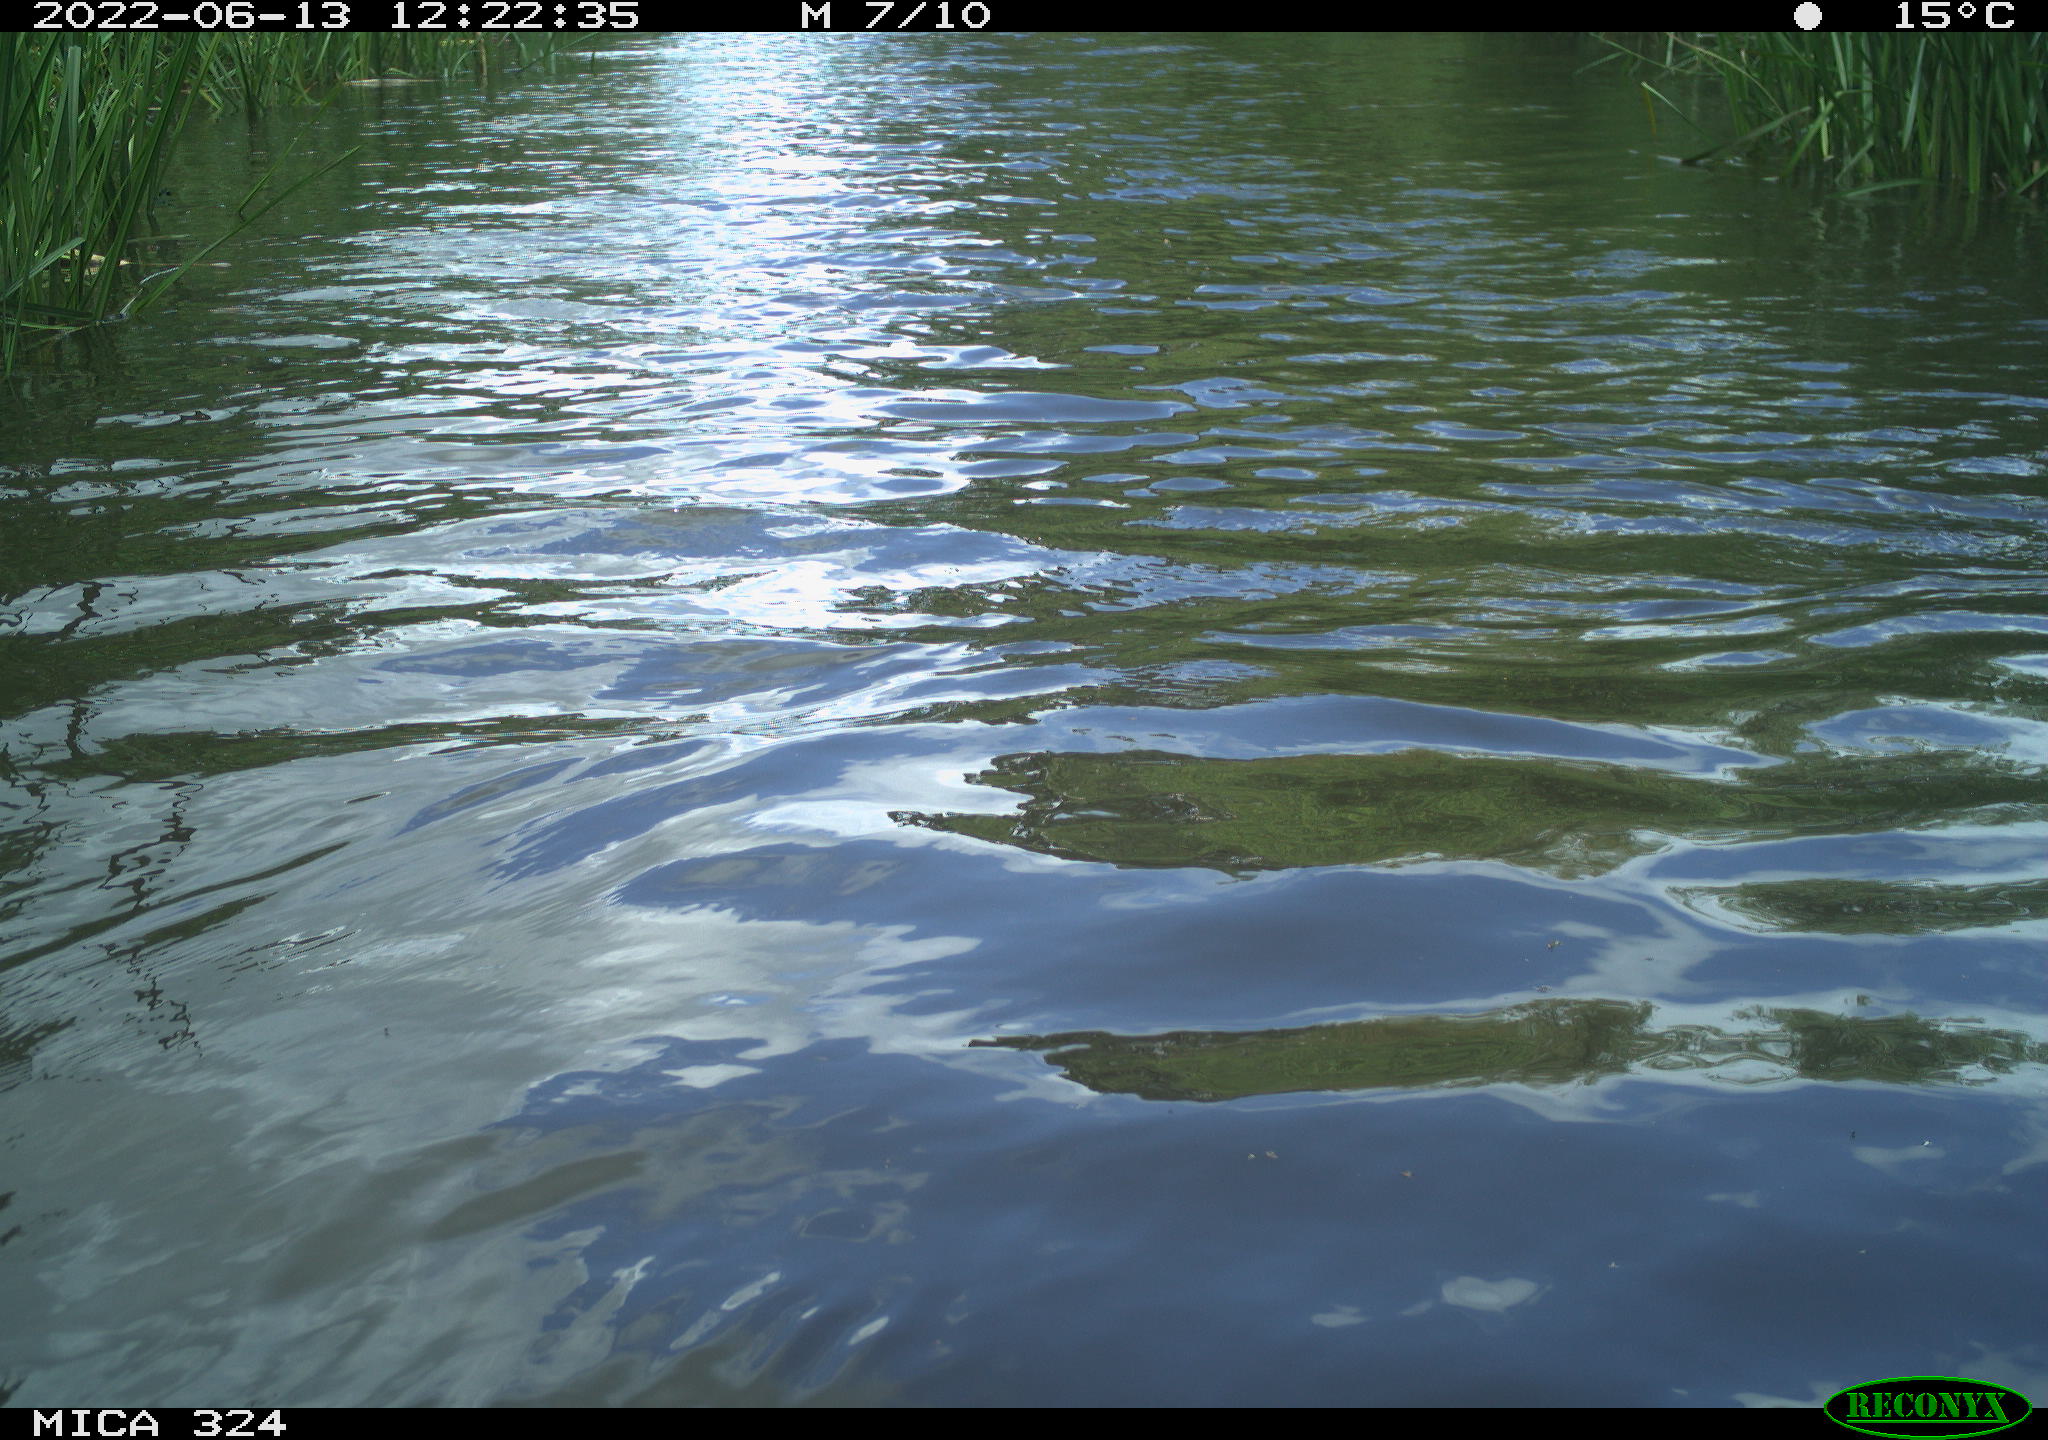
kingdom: Animalia
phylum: Chordata
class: Aves
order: Gruiformes
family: Rallidae
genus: Gallinula
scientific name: Gallinula chloropus
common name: Common moorhen
